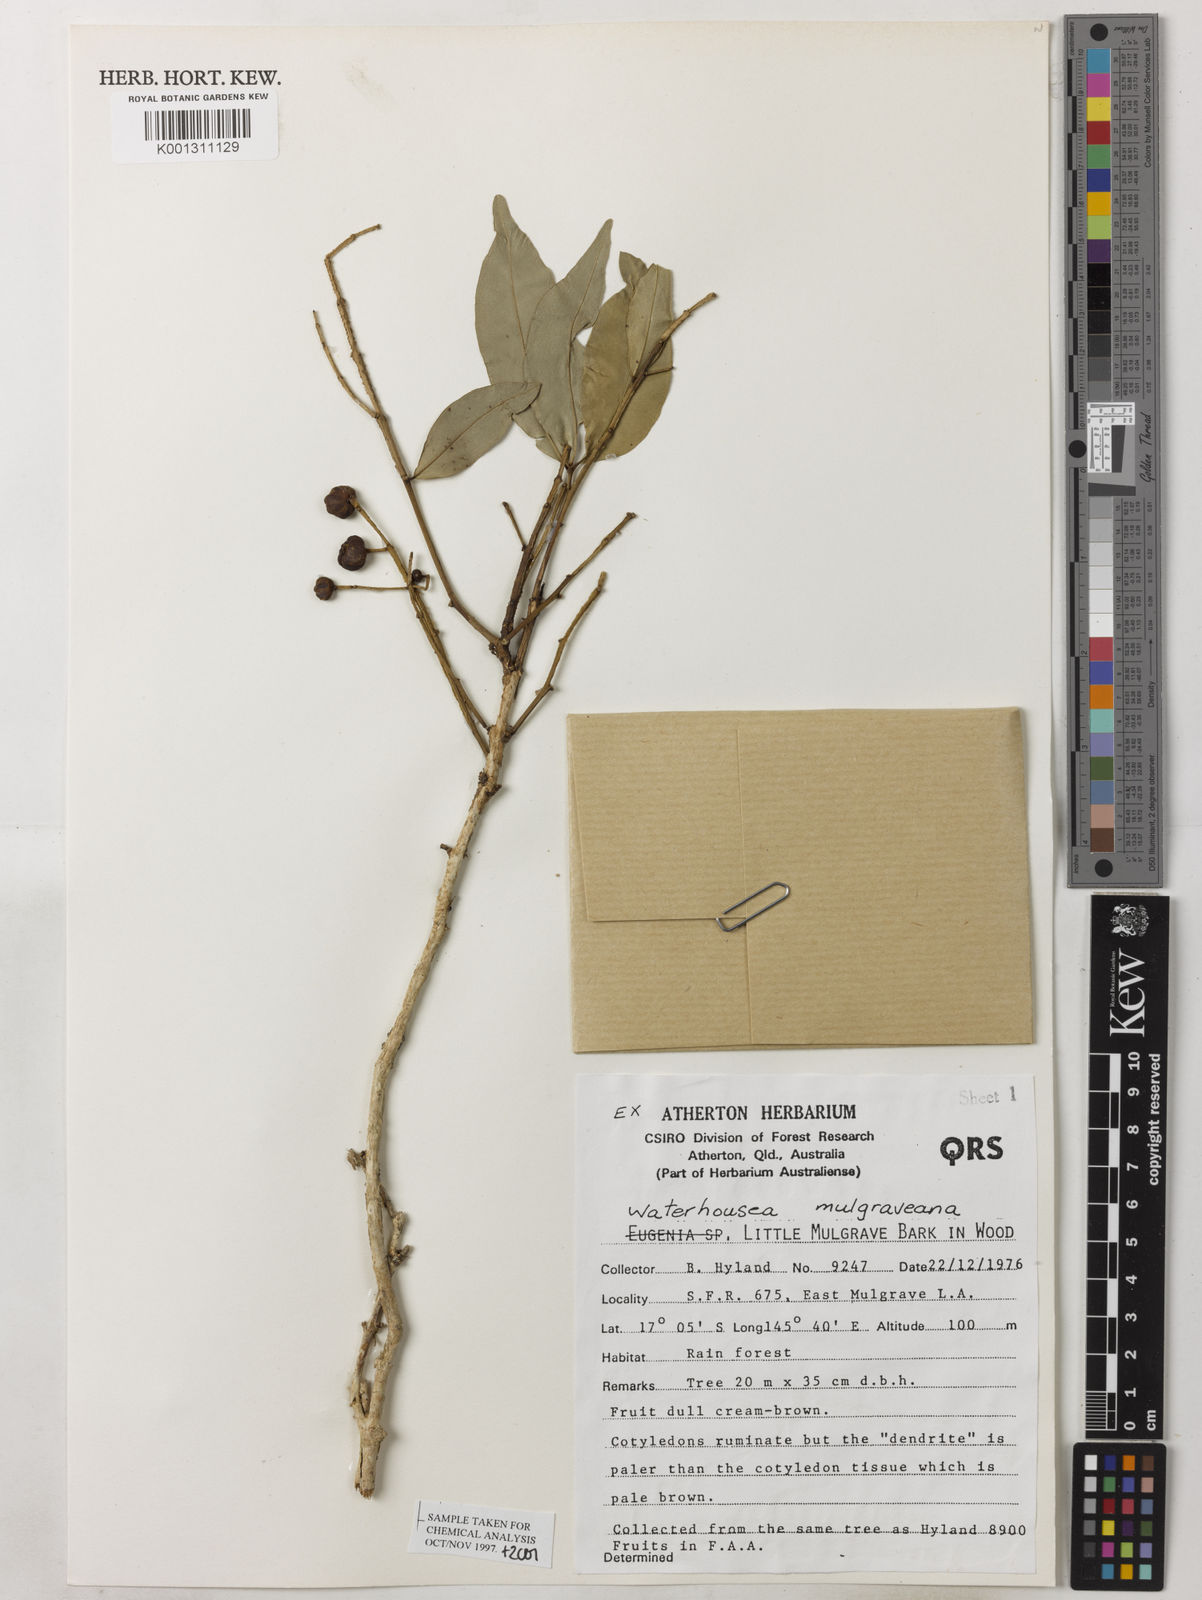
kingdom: Plantae
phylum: Tracheophyta
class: Magnoliopsida
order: Myrtales
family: Myrtaceae
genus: Syzygium
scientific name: Syzygium mulgraveanum
